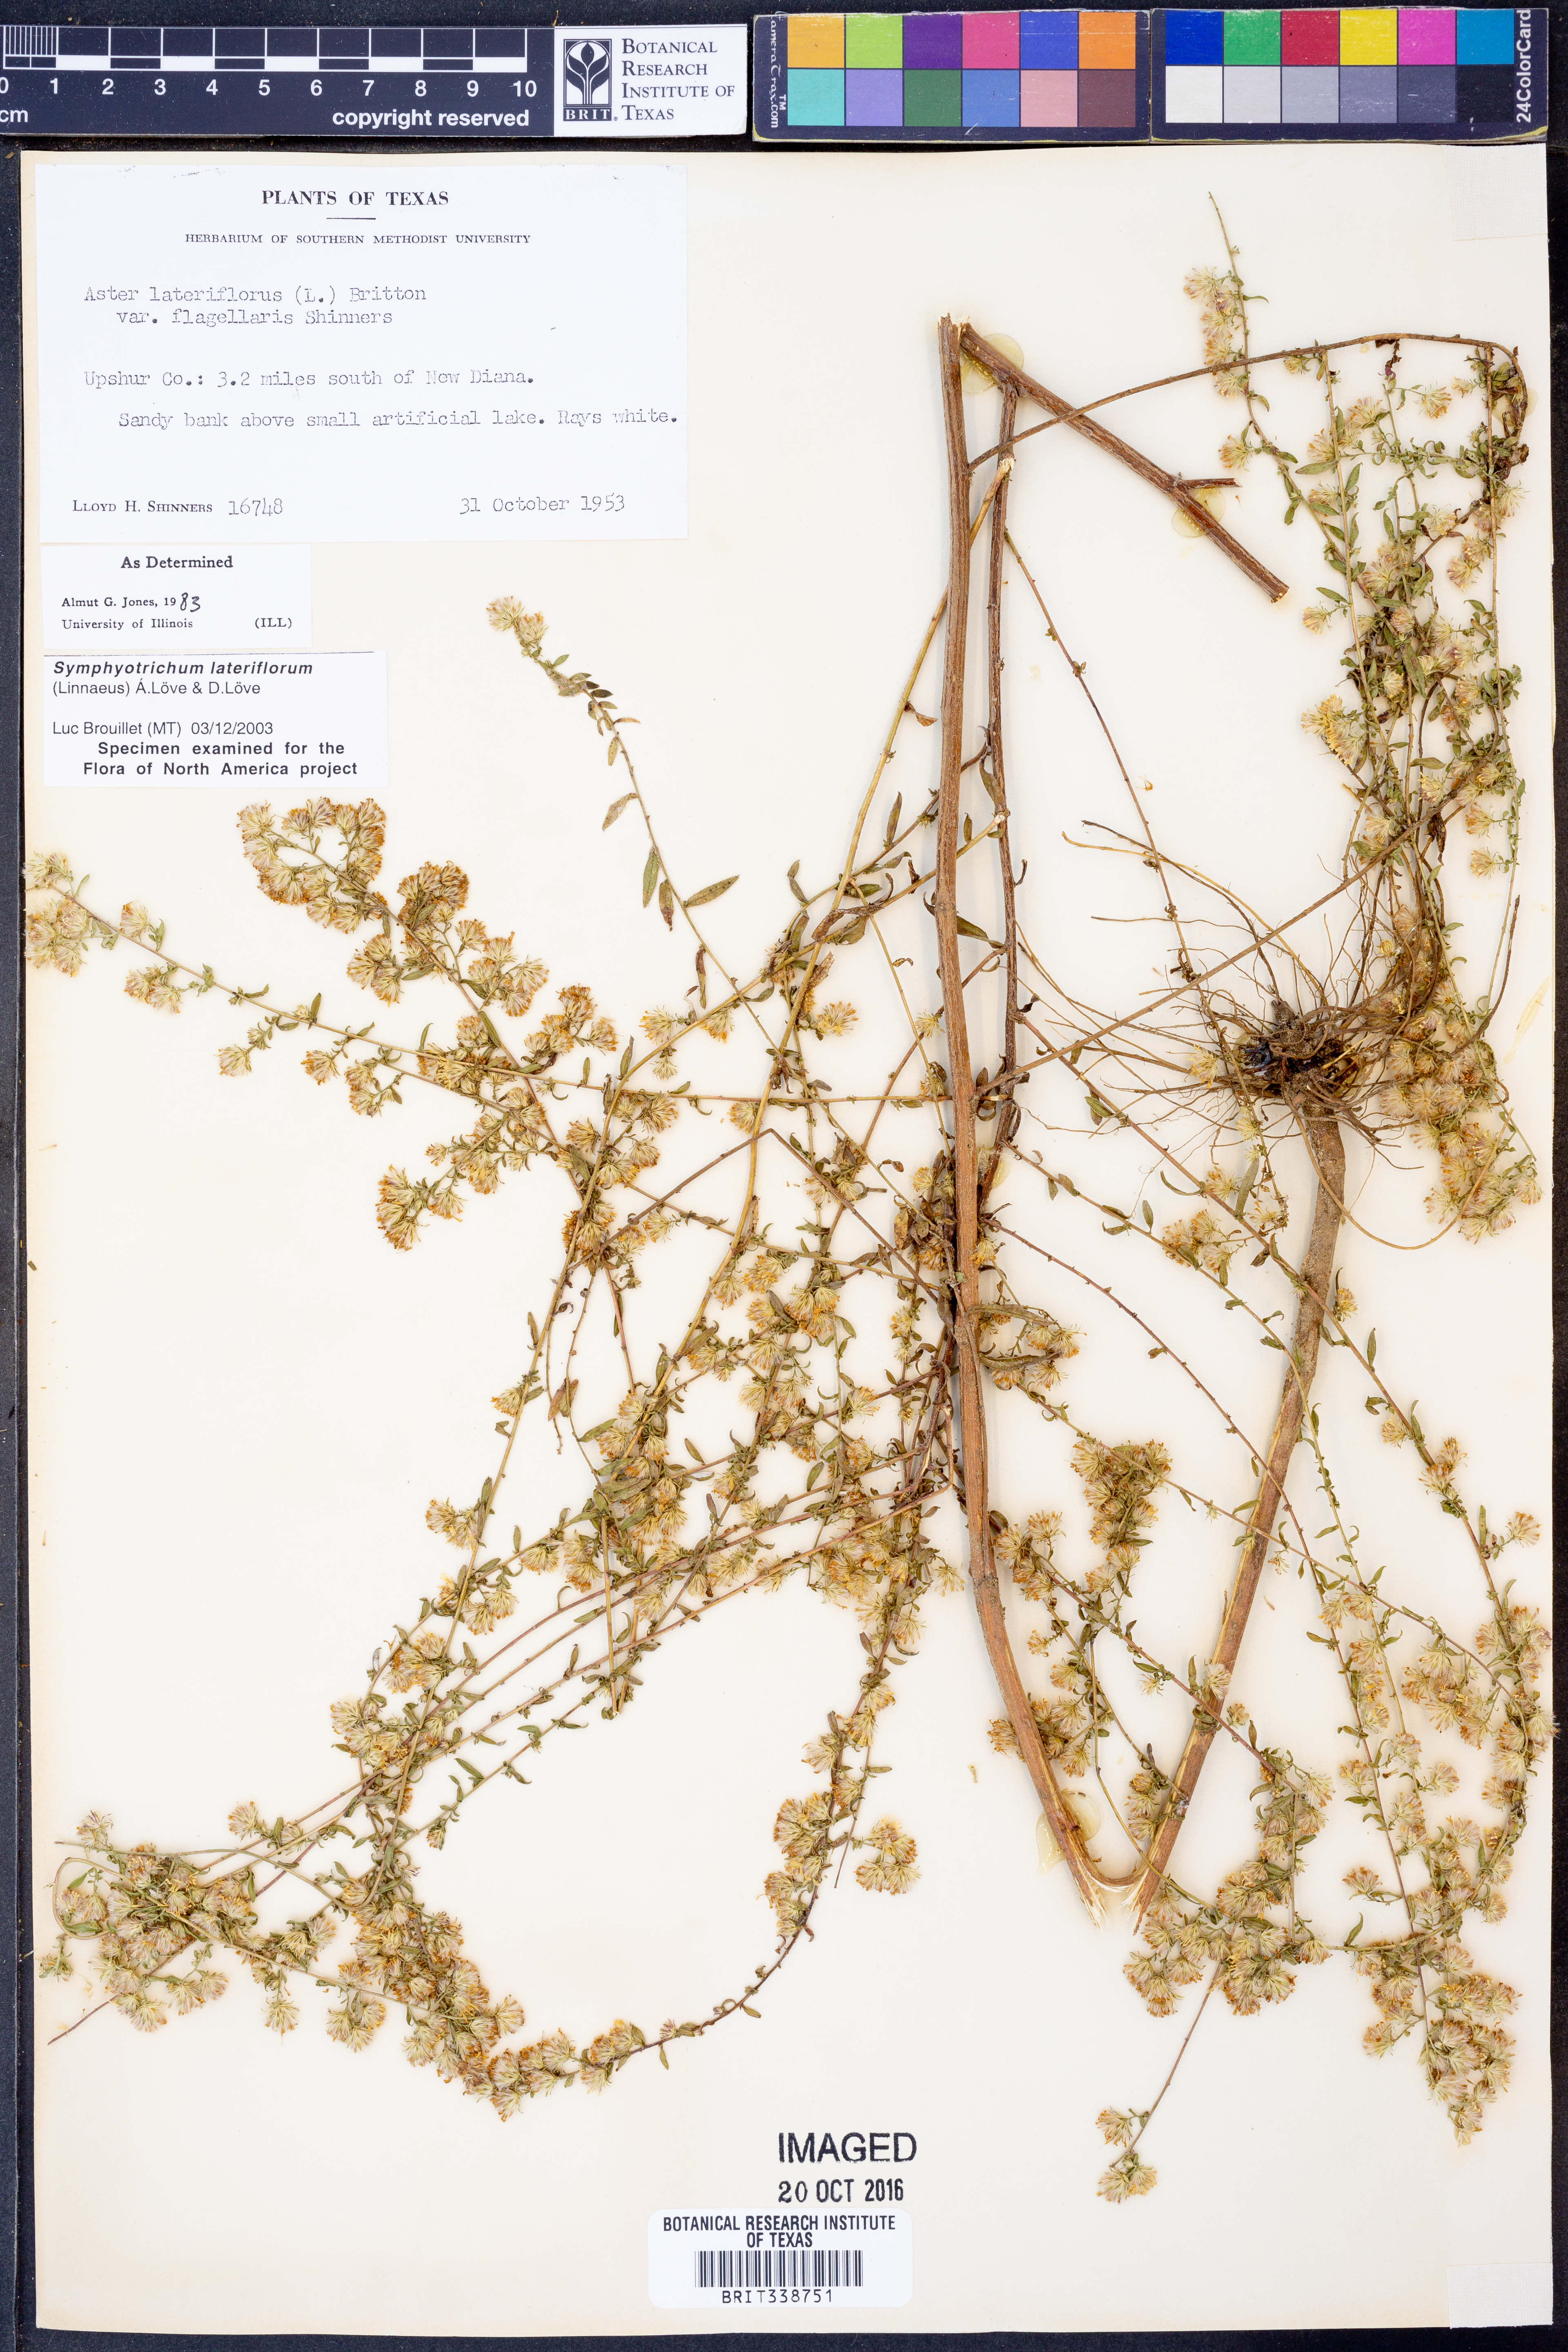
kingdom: Plantae
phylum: Tracheophyta
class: Magnoliopsida
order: Asterales
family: Asteraceae
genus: Symphyotrichum
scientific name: Symphyotrichum lateriflorum
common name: Calico aster
